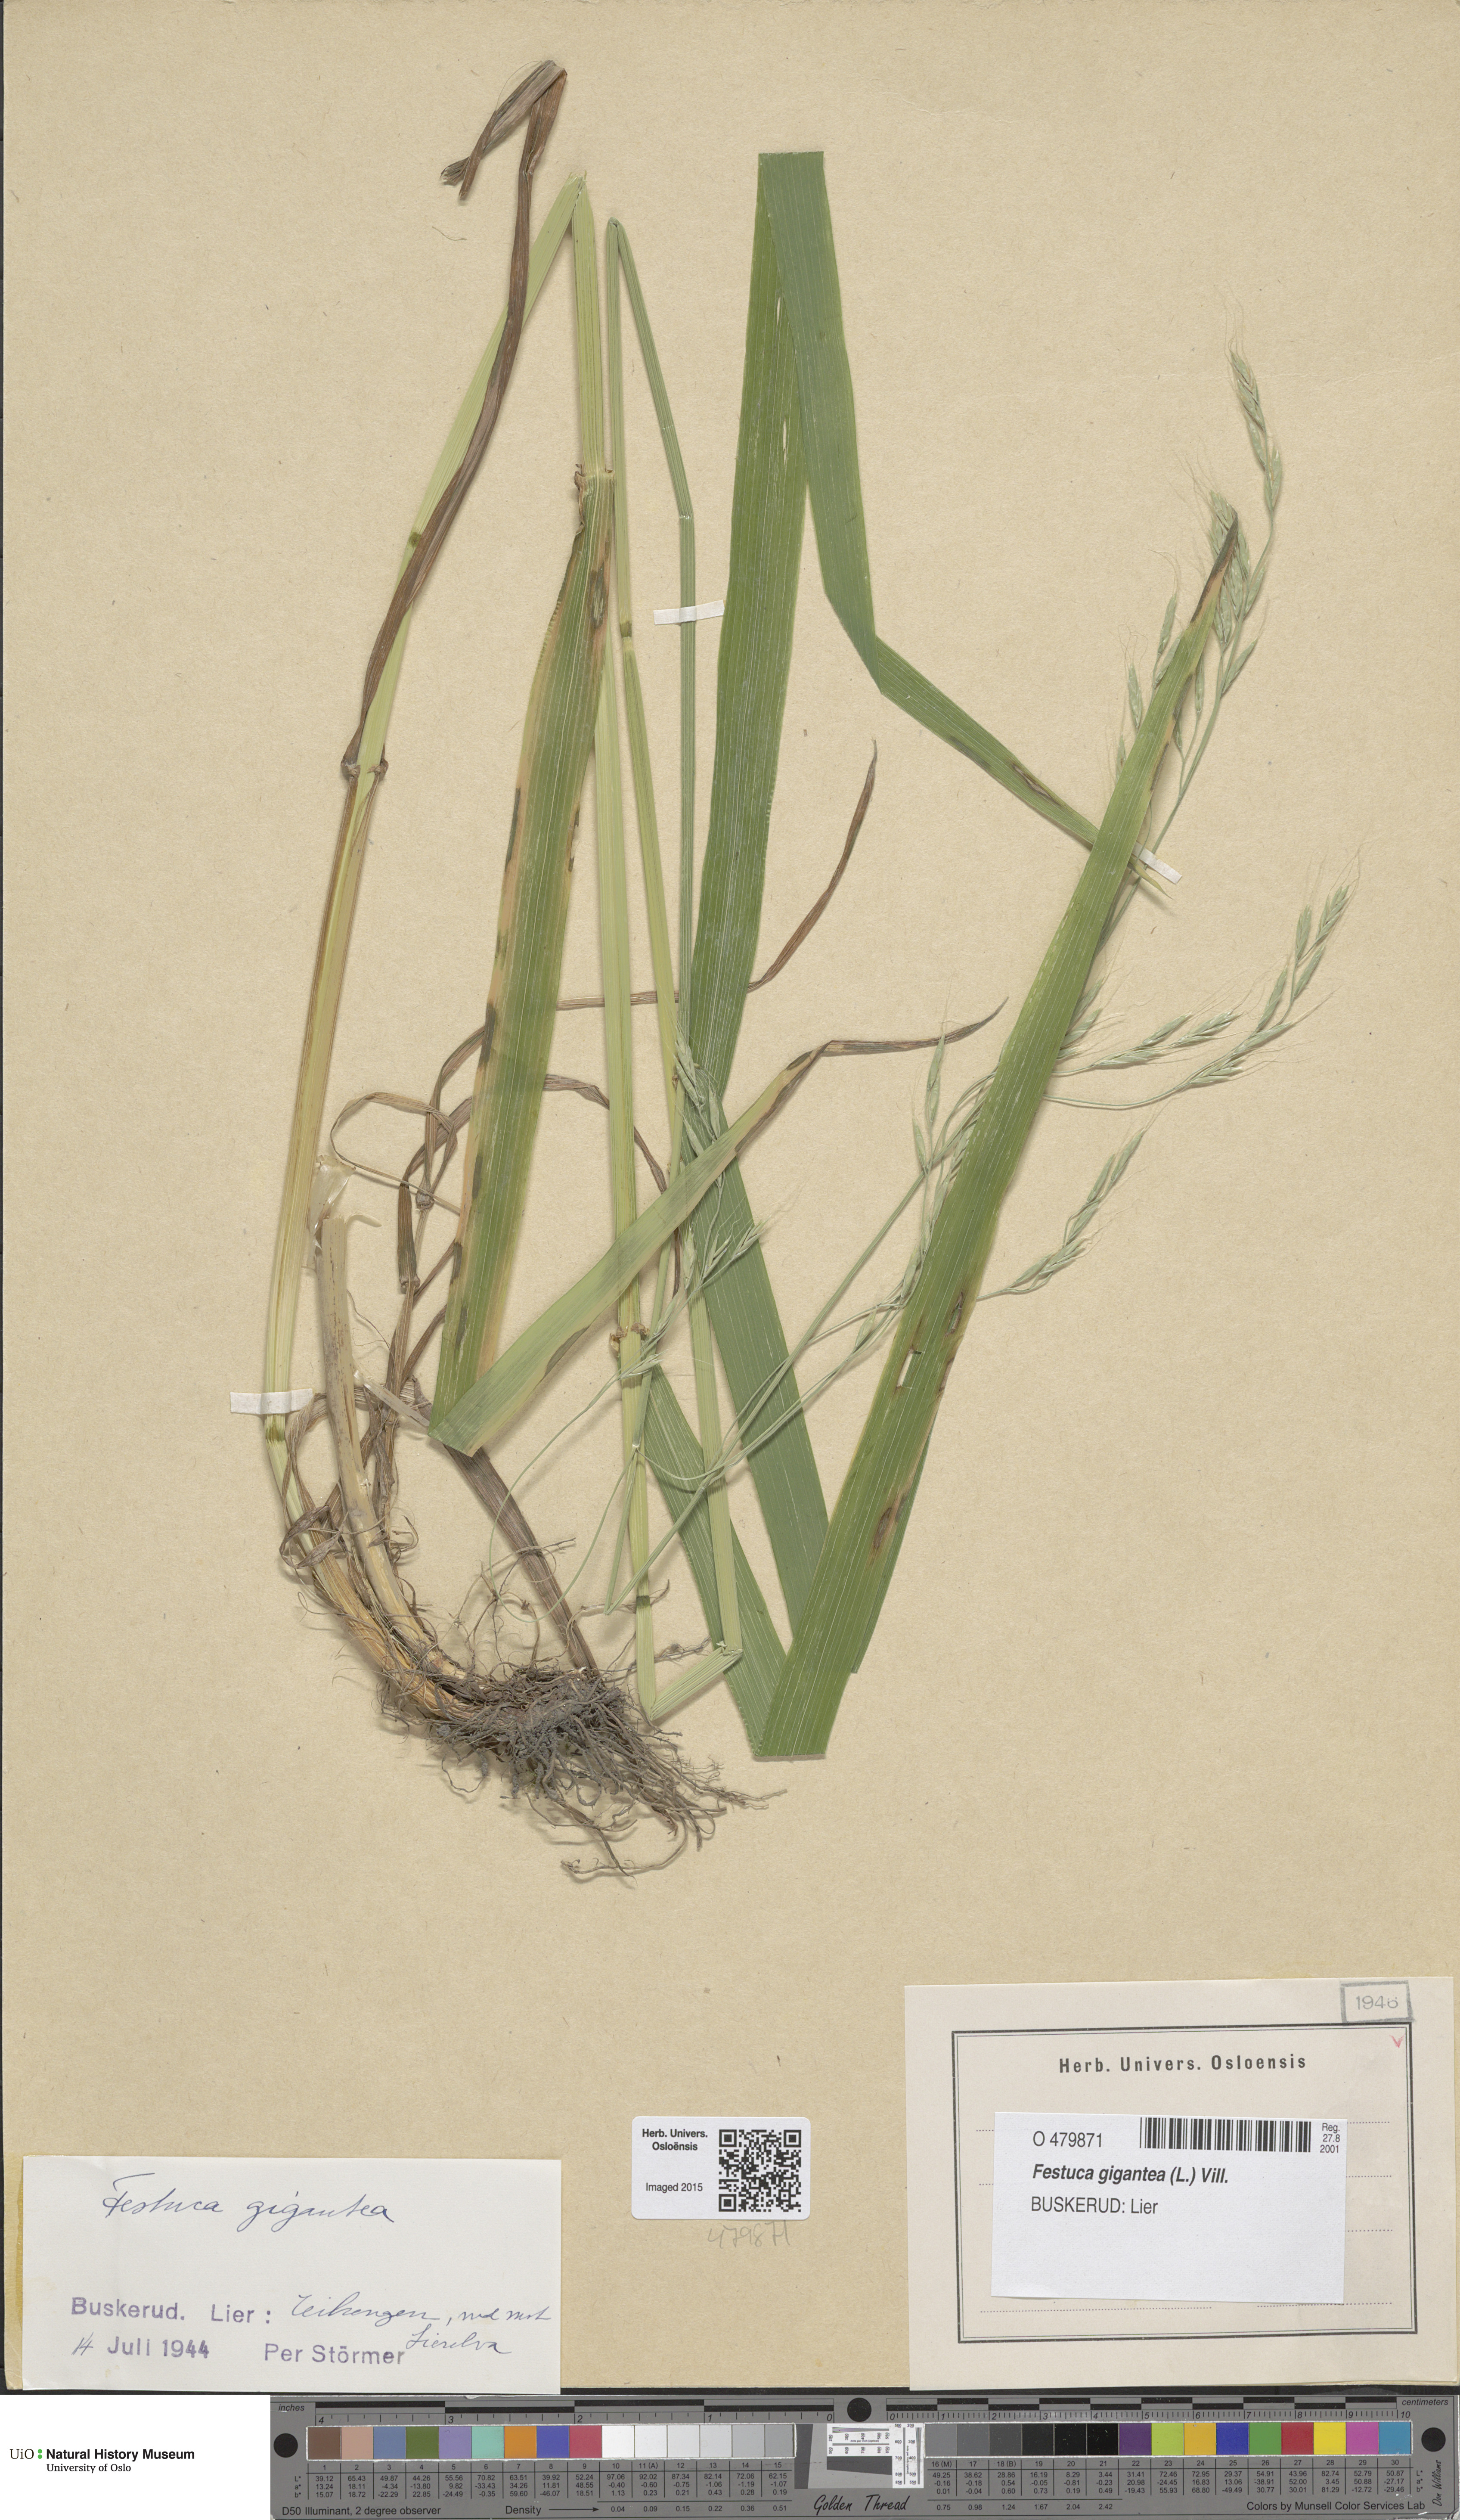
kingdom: Plantae
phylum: Tracheophyta
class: Liliopsida
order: Poales
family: Poaceae
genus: Lolium
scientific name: Lolium giganteum
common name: Giant fescue
